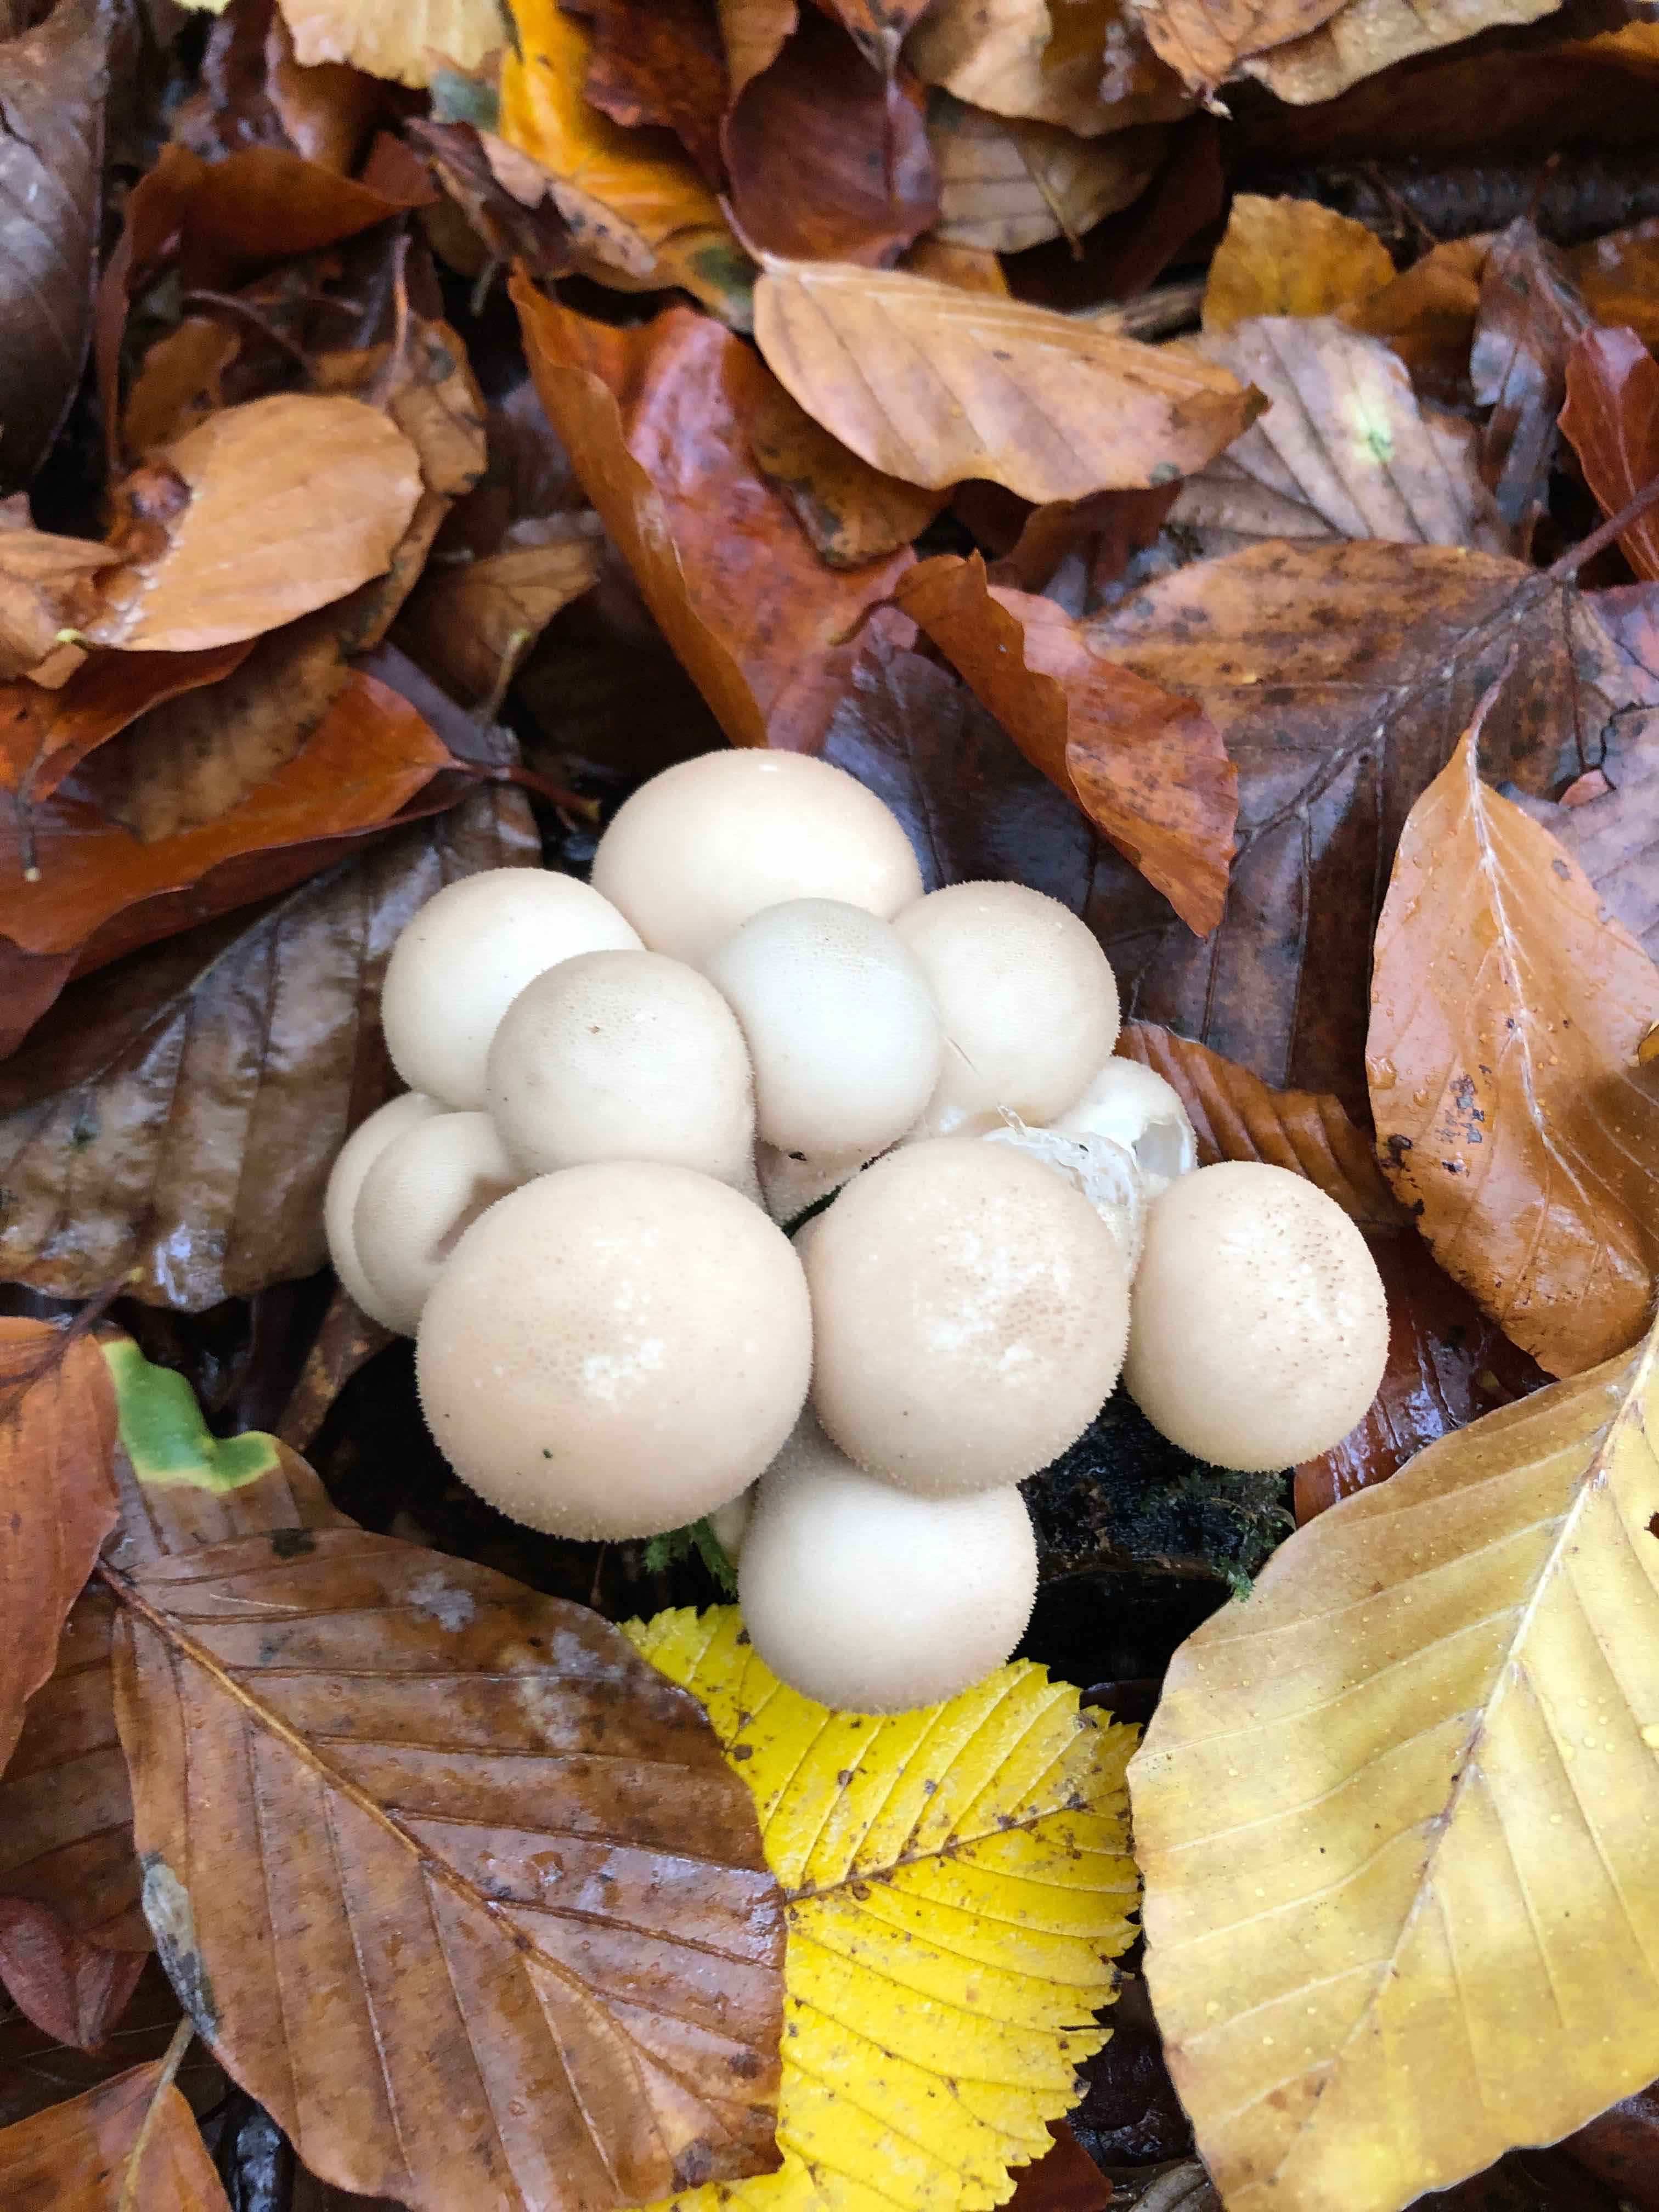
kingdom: Fungi
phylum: Basidiomycota
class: Agaricomycetes
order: Agaricales
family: Lycoperdaceae
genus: Apioperdon
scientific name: Apioperdon pyriforme
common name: pære-støvbold
